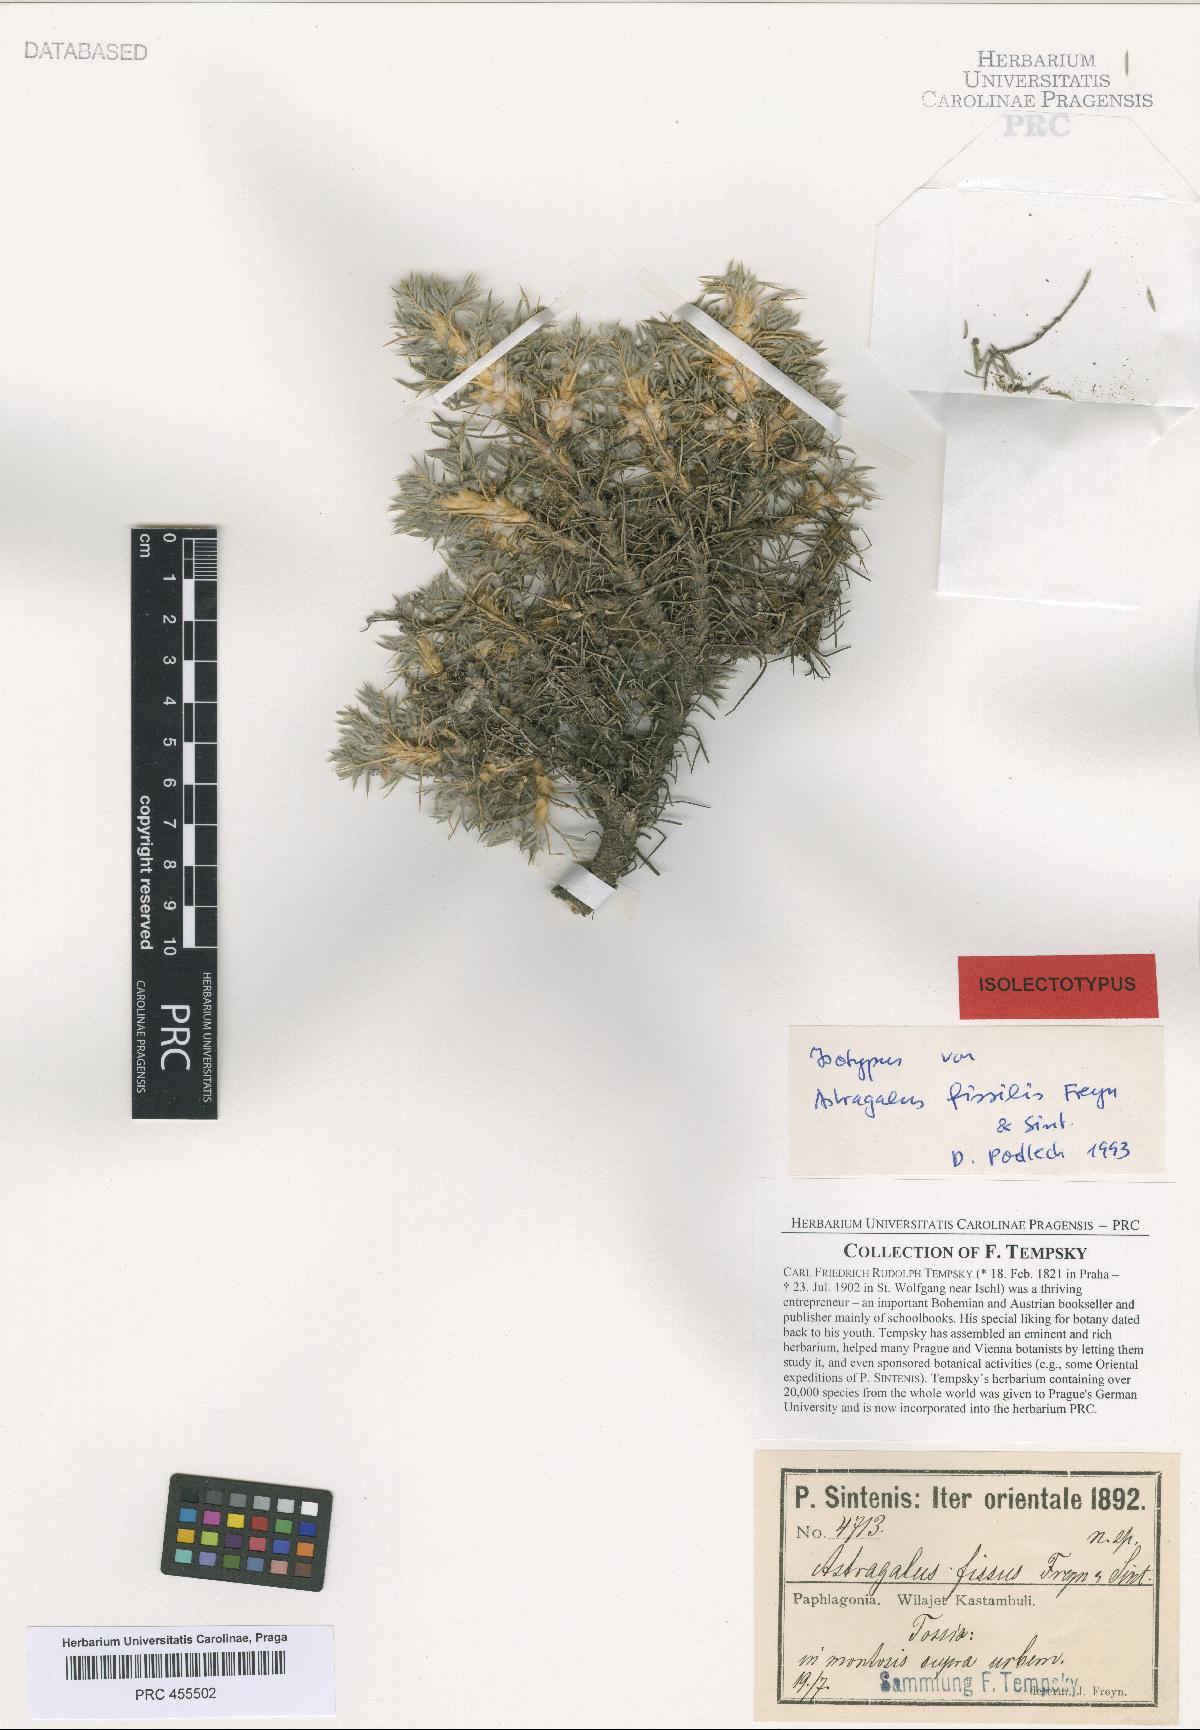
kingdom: Plantae
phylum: Tracheophyta
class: Magnoliopsida
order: Fabales
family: Fabaceae
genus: Astragalus
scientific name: Astragalus microcephalus
